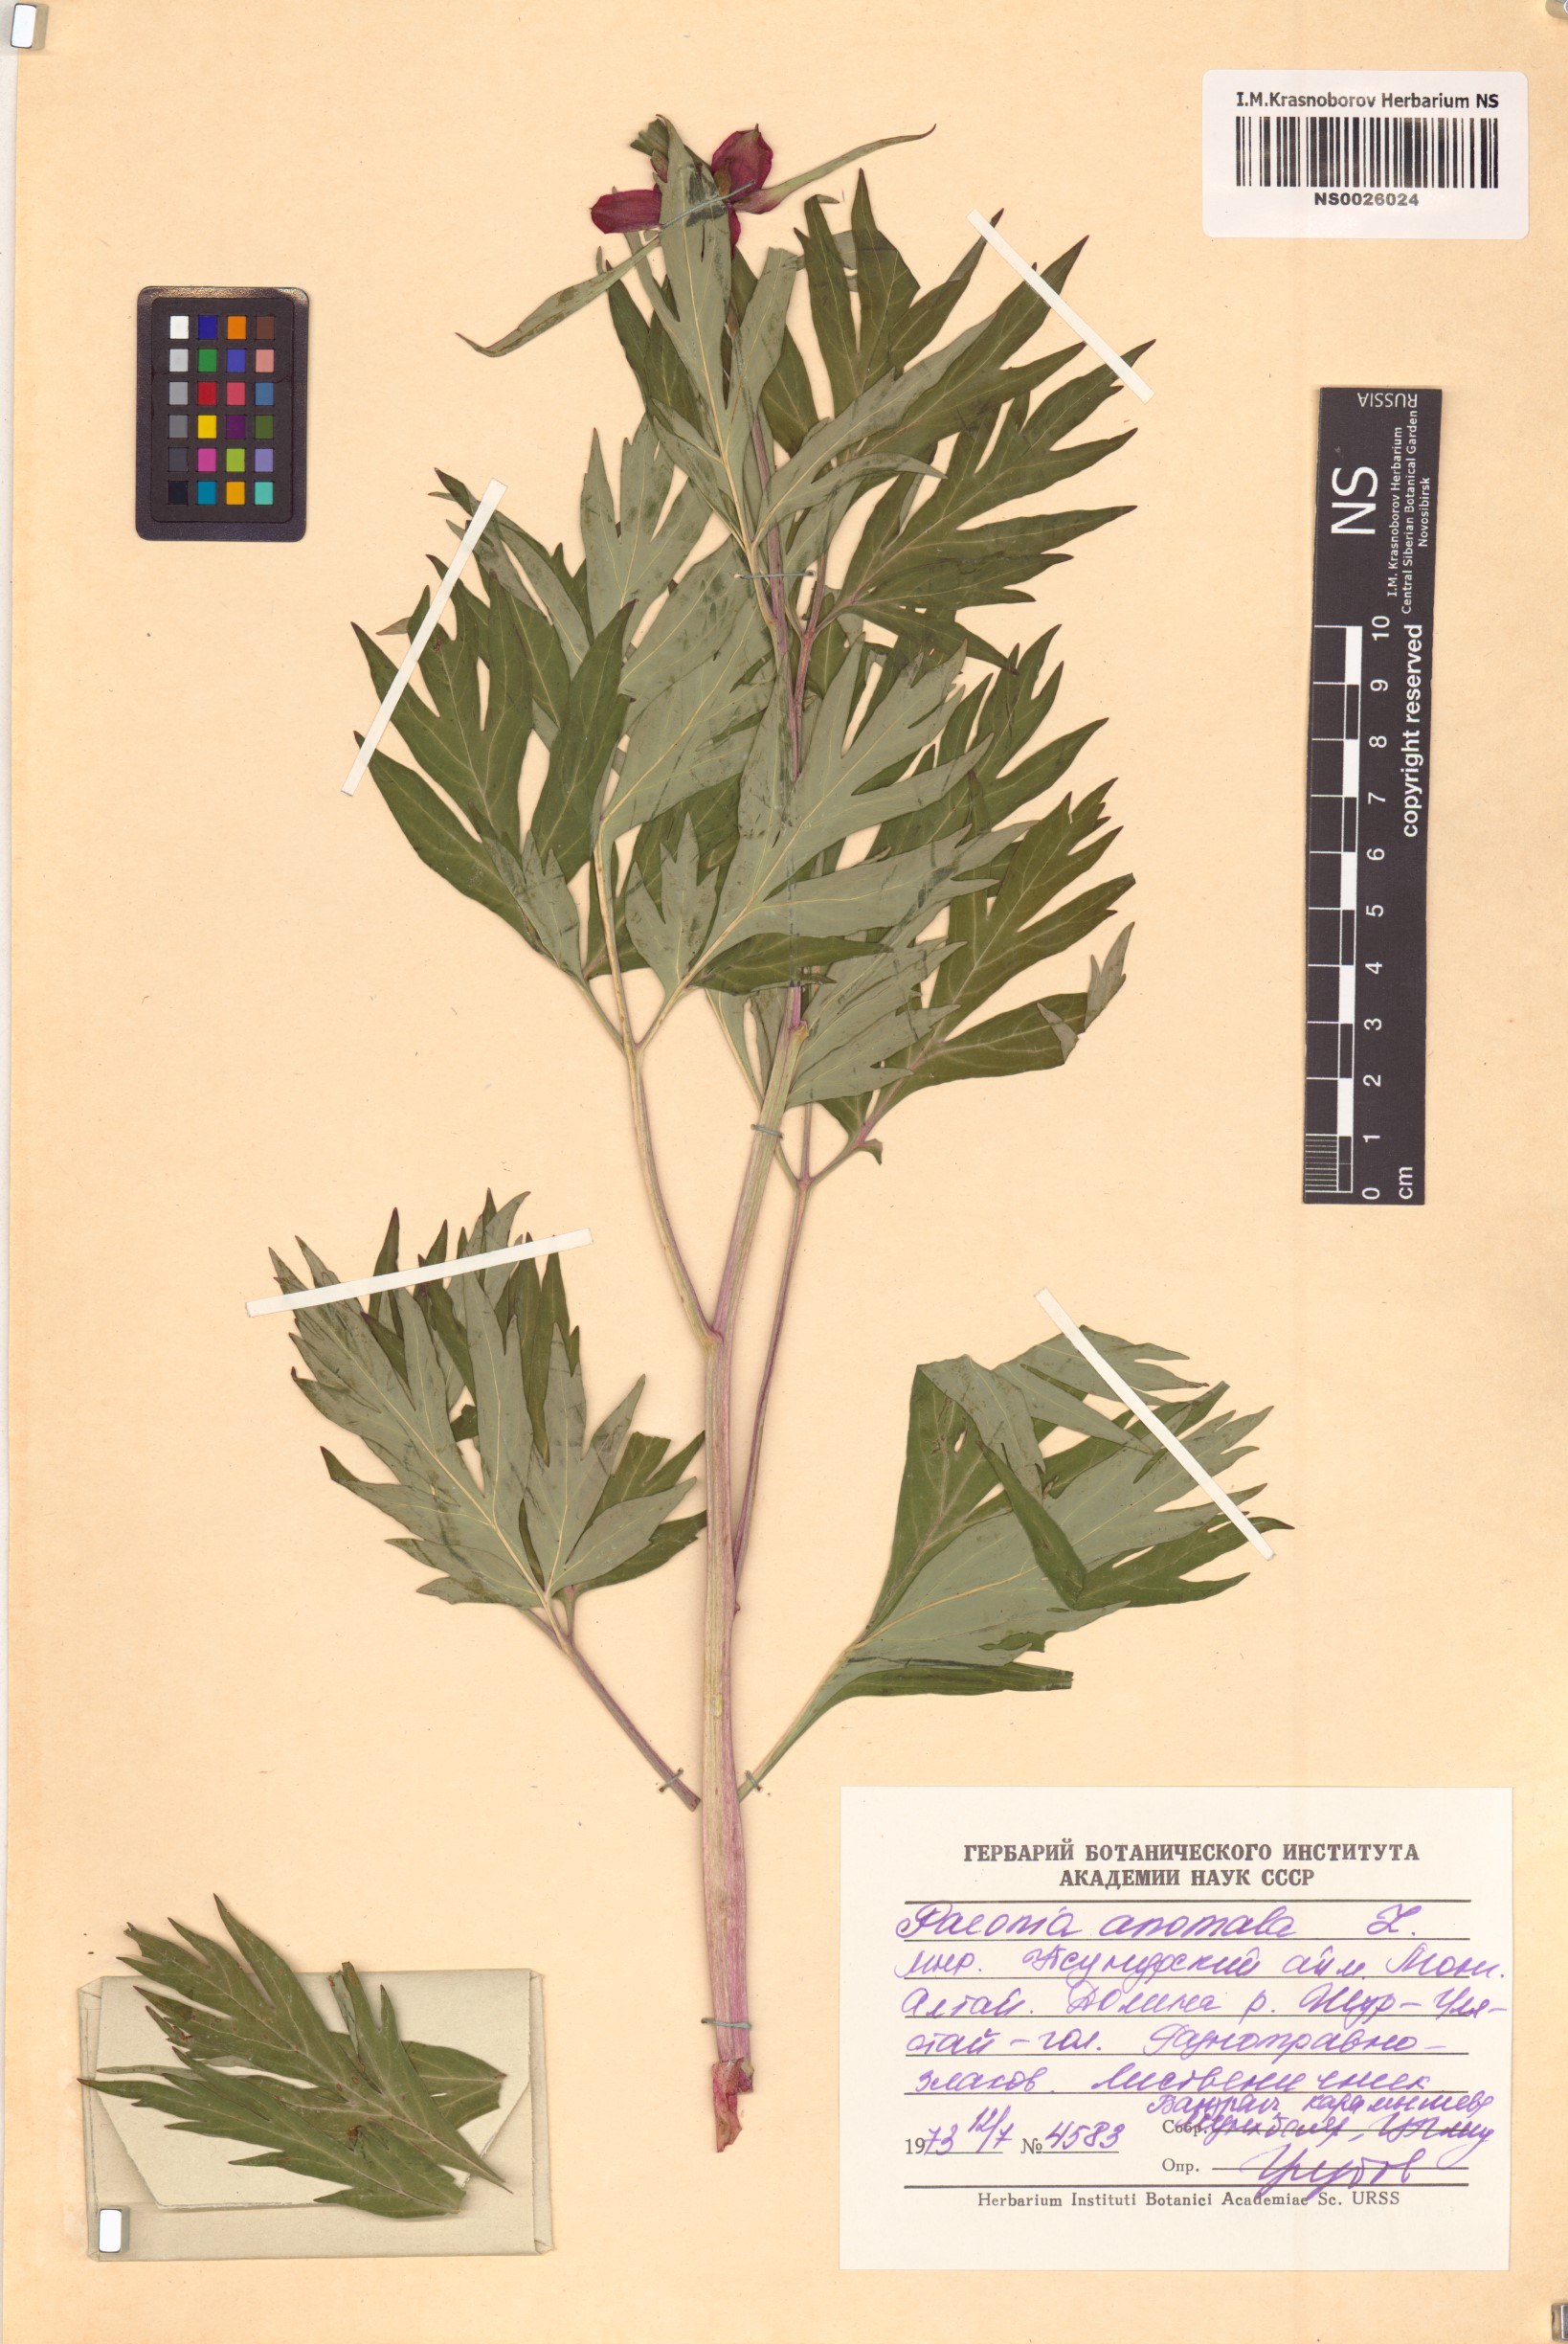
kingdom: Plantae
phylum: Tracheophyta
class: Magnoliopsida
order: Saxifragales
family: Paeoniaceae
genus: Paeonia
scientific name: Paeonia anomala
